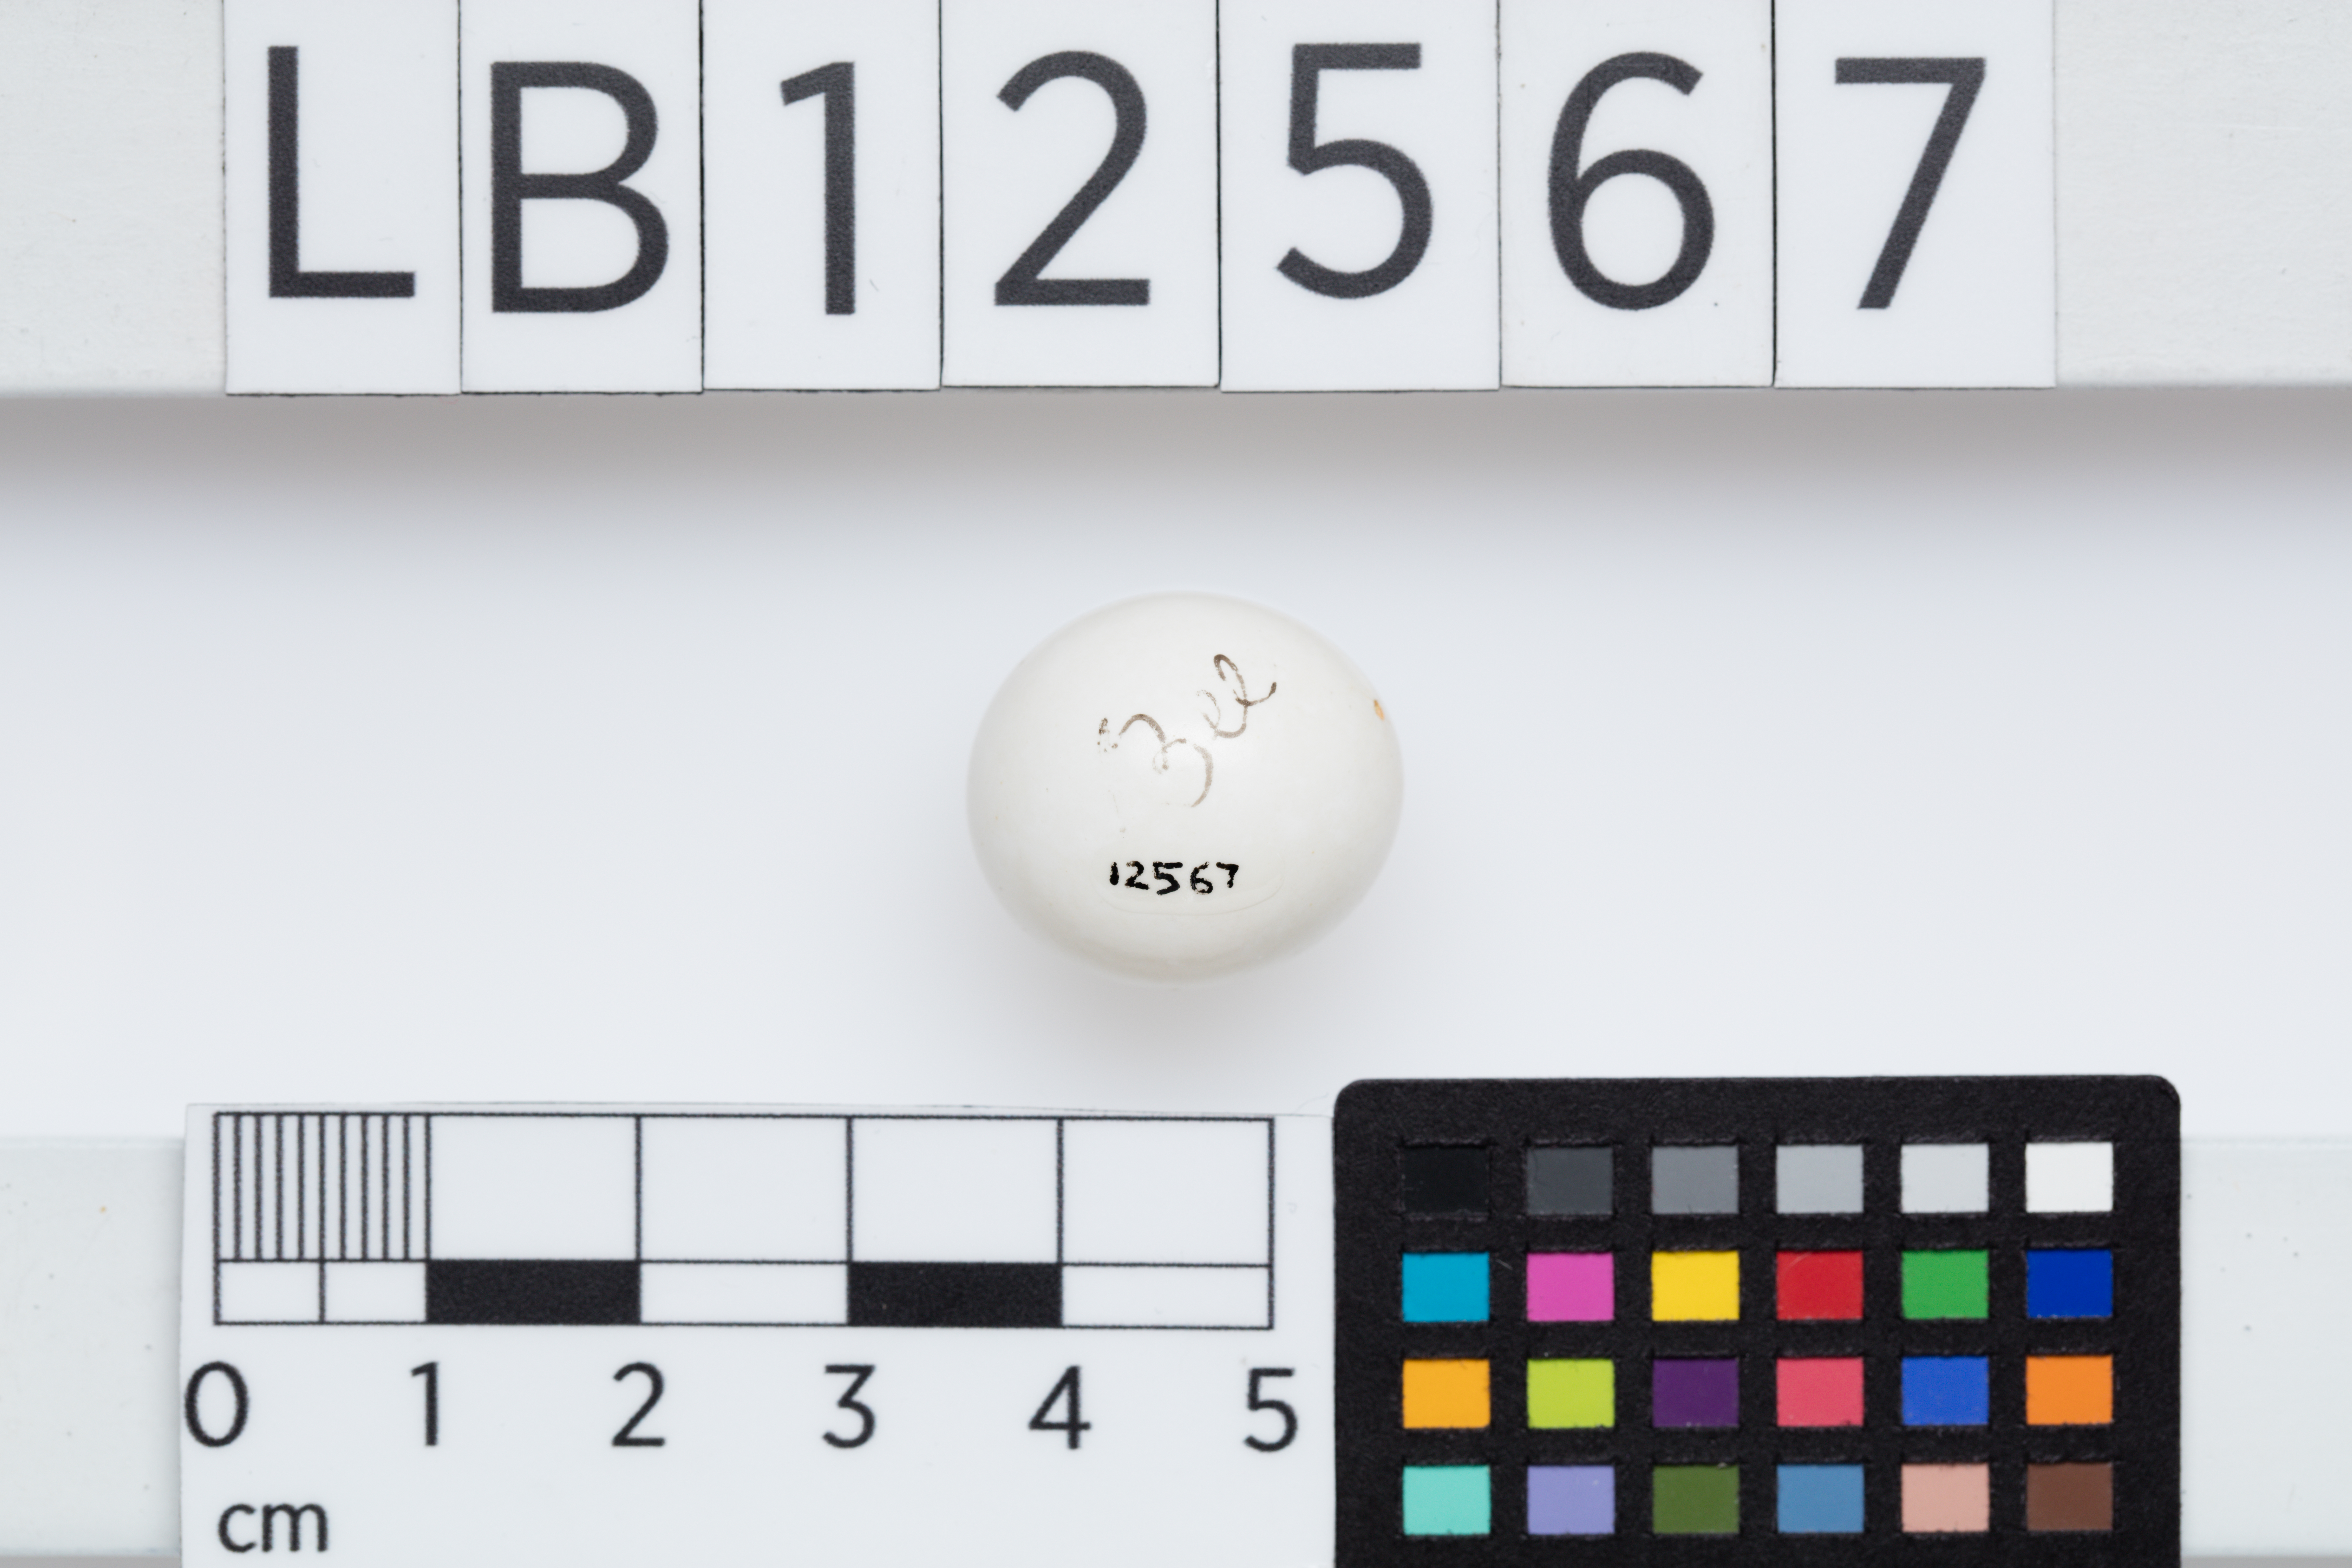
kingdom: Animalia
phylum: Chordata
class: Aves
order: Coraciiformes
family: Meropidae
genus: Merops
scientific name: Merops ornatus
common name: Rainbow bee-eater
